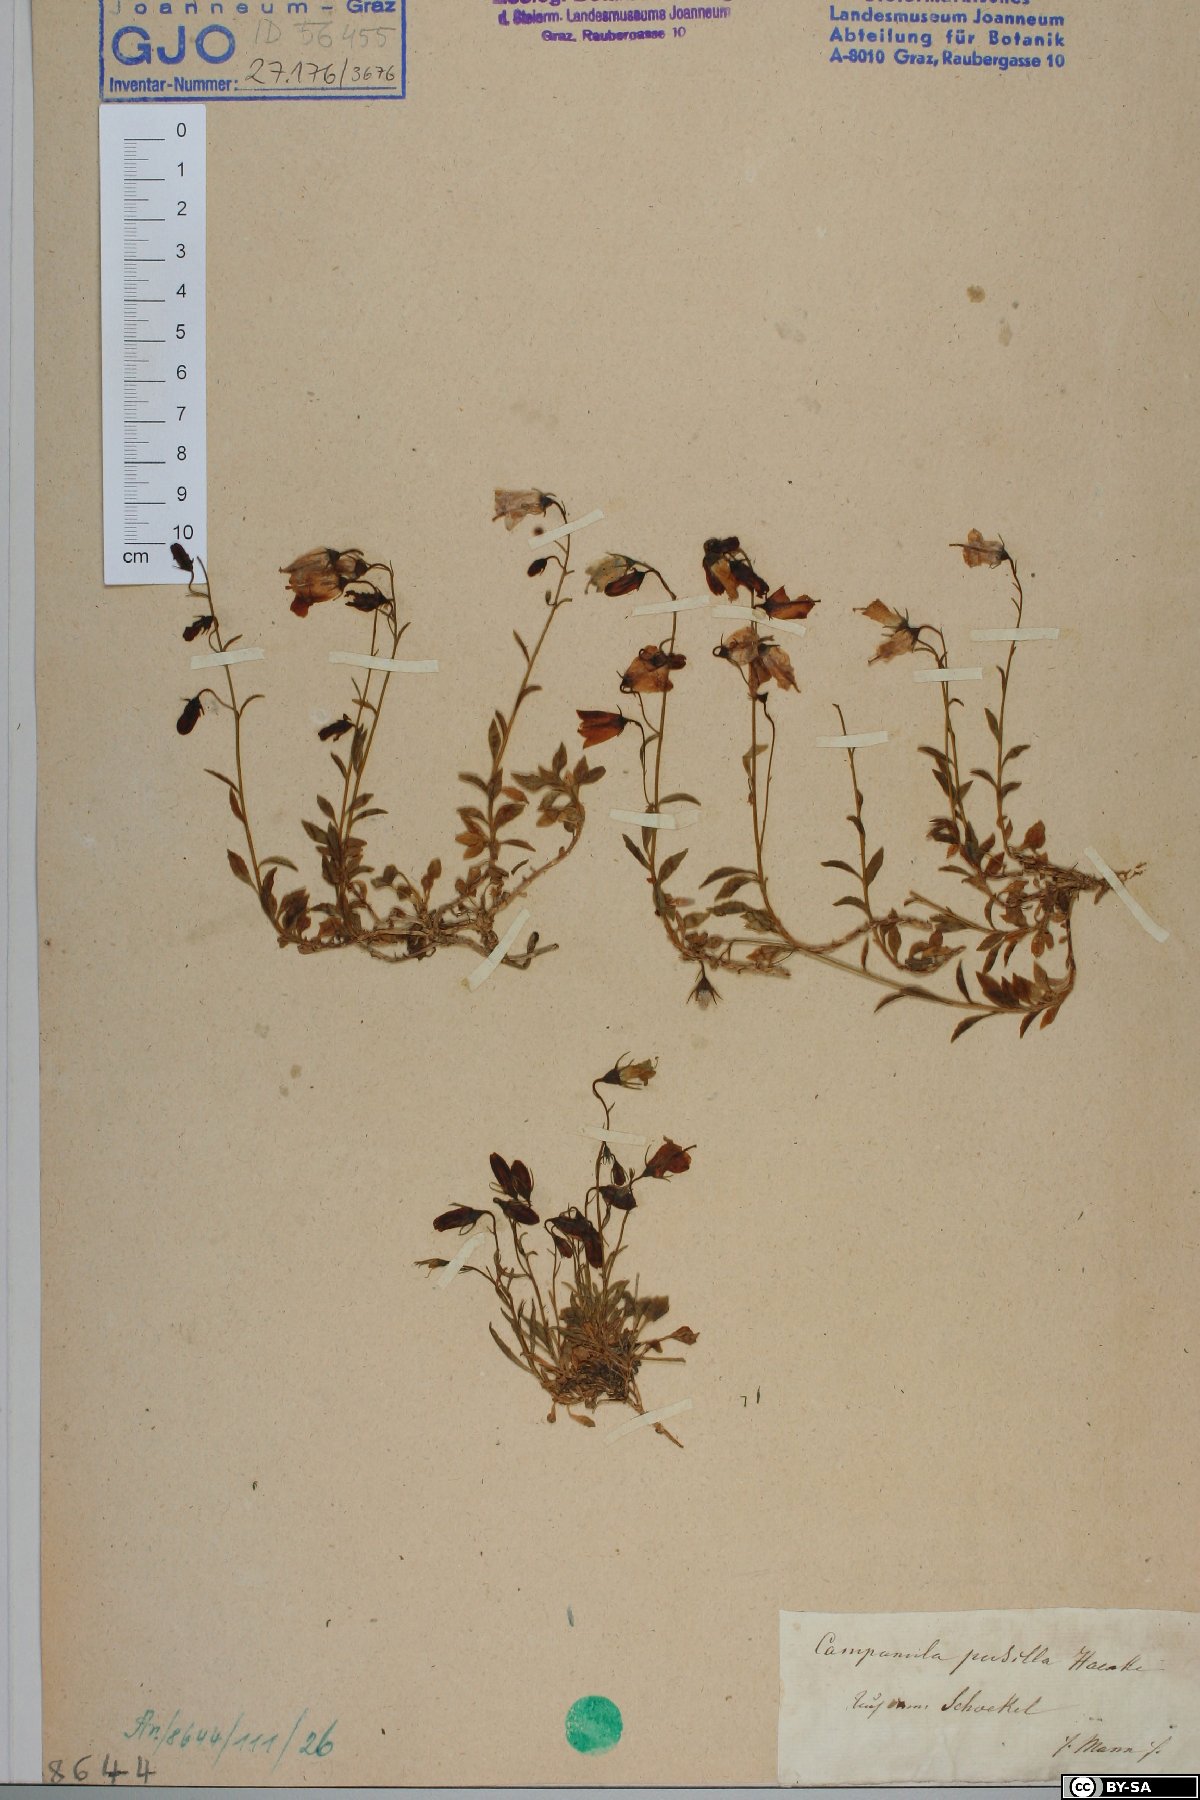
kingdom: Plantae
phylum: Tracheophyta
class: Magnoliopsida
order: Asterales
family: Campanulaceae
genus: Campanula
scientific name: Campanula cochleariifolia
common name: Fairies'-thimbles
